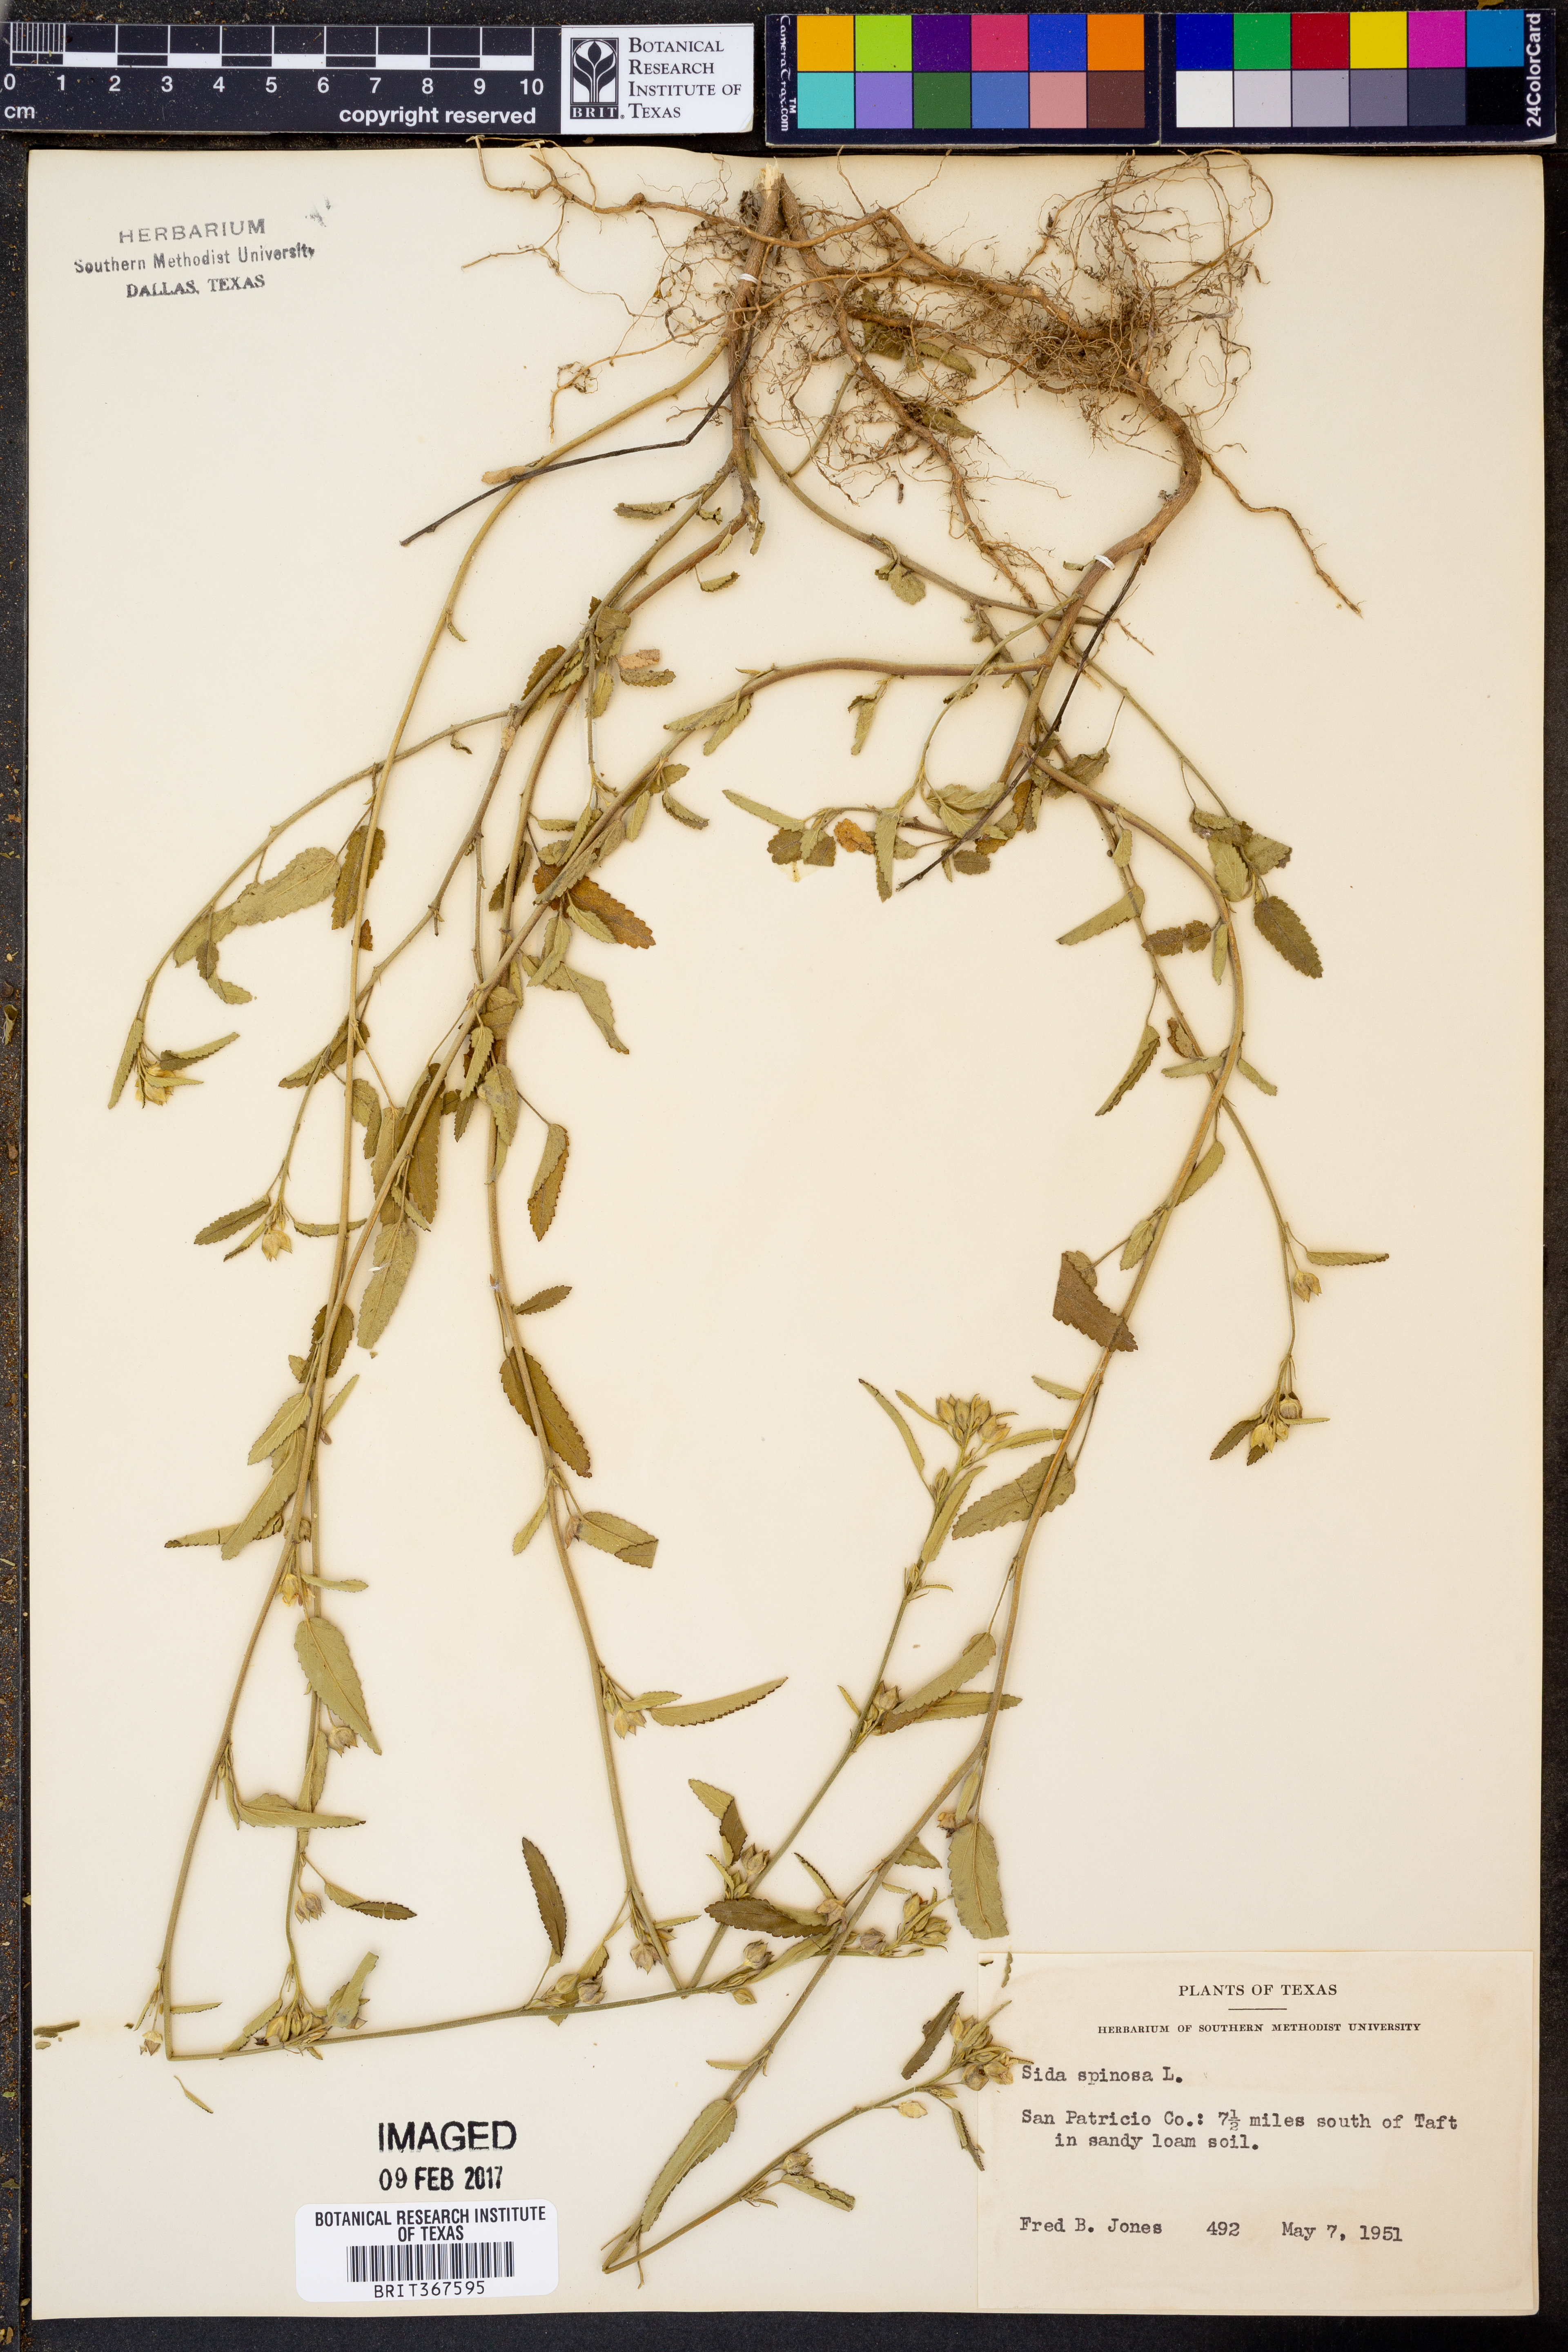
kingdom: Plantae
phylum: Tracheophyta
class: Magnoliopsida
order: Malvales
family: Malvaceae
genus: Sida
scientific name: Sida spinosa
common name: Prickly fanpetals
